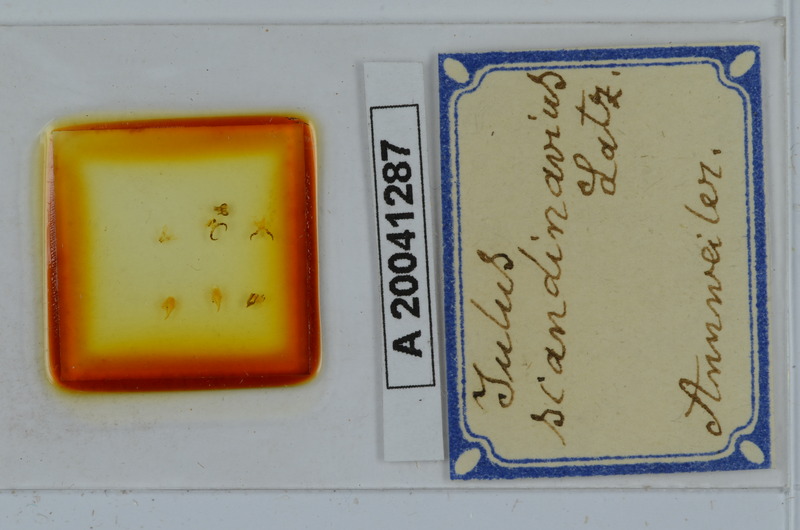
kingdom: Animalia
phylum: Arthropoda
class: Diplopoda
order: Julida
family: Julidae
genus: Julus
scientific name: Julus scandinavius
